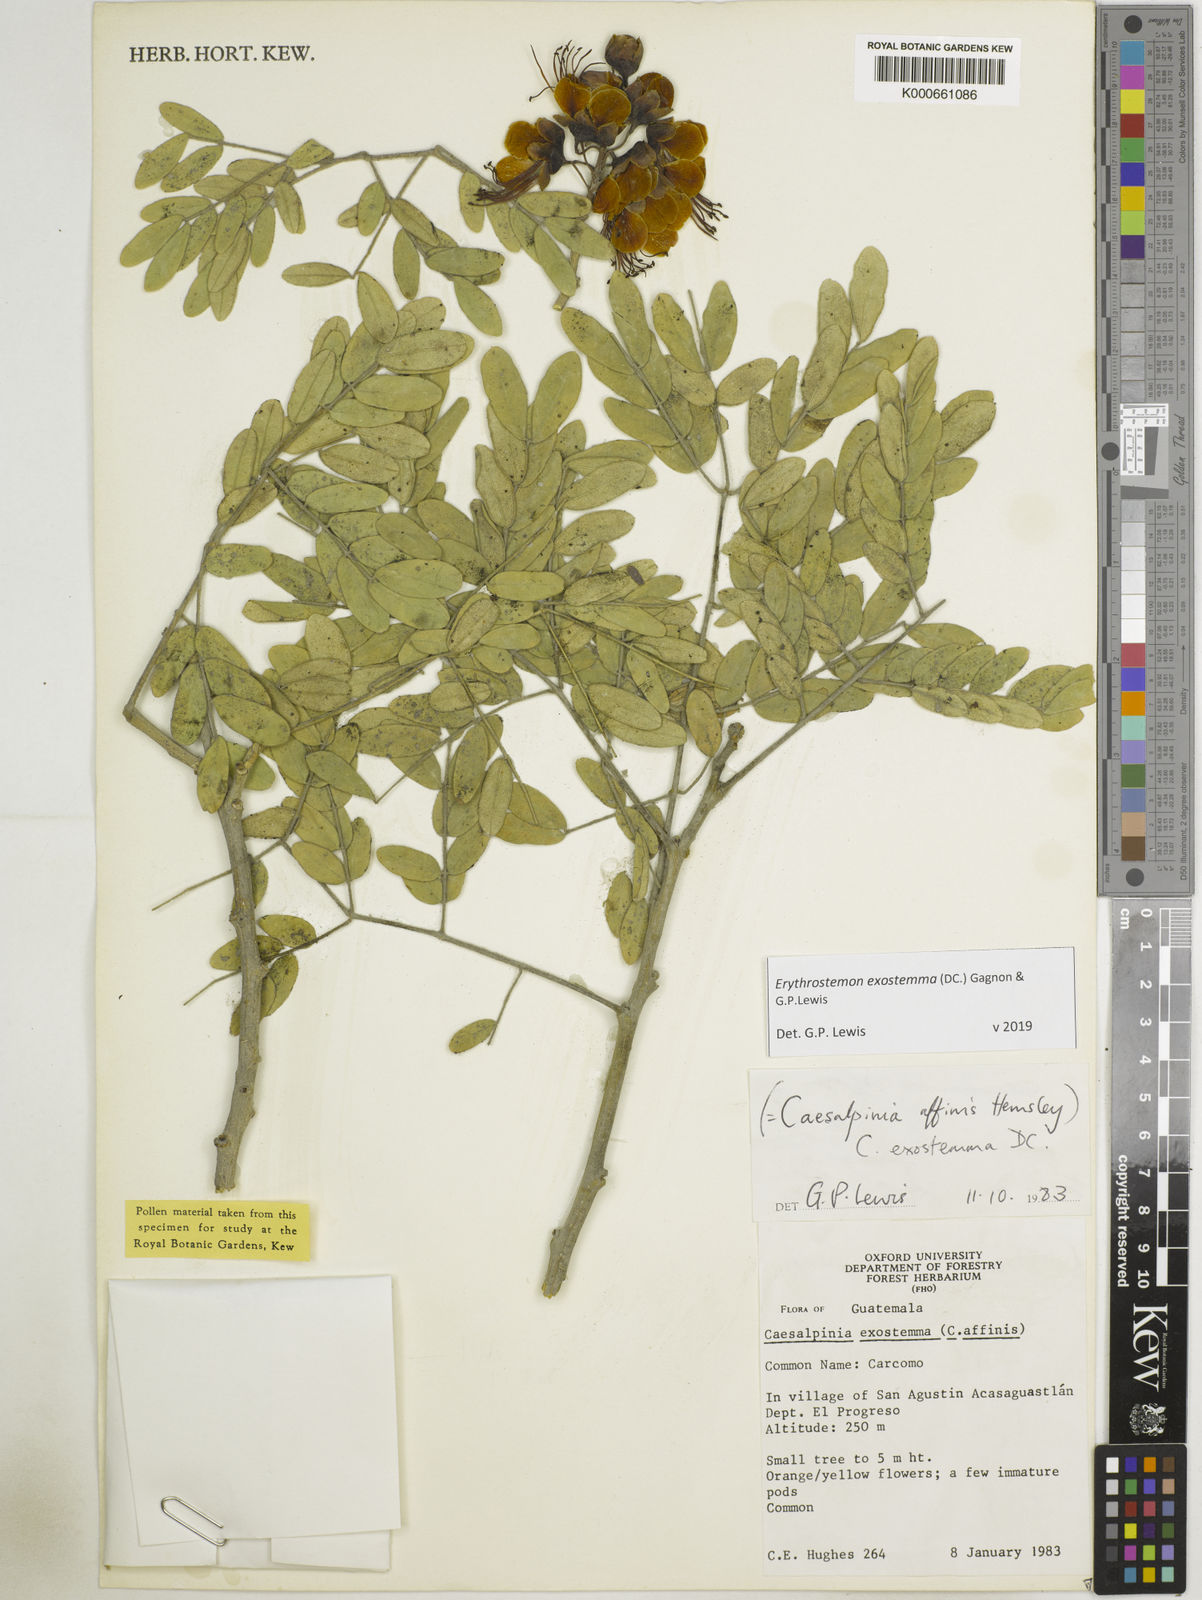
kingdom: Plantae
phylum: Tracheophyta
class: Magnoliopsida
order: Fabales
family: Fabaceae
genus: Erythrostemon
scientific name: Erythrostemon exostemma
